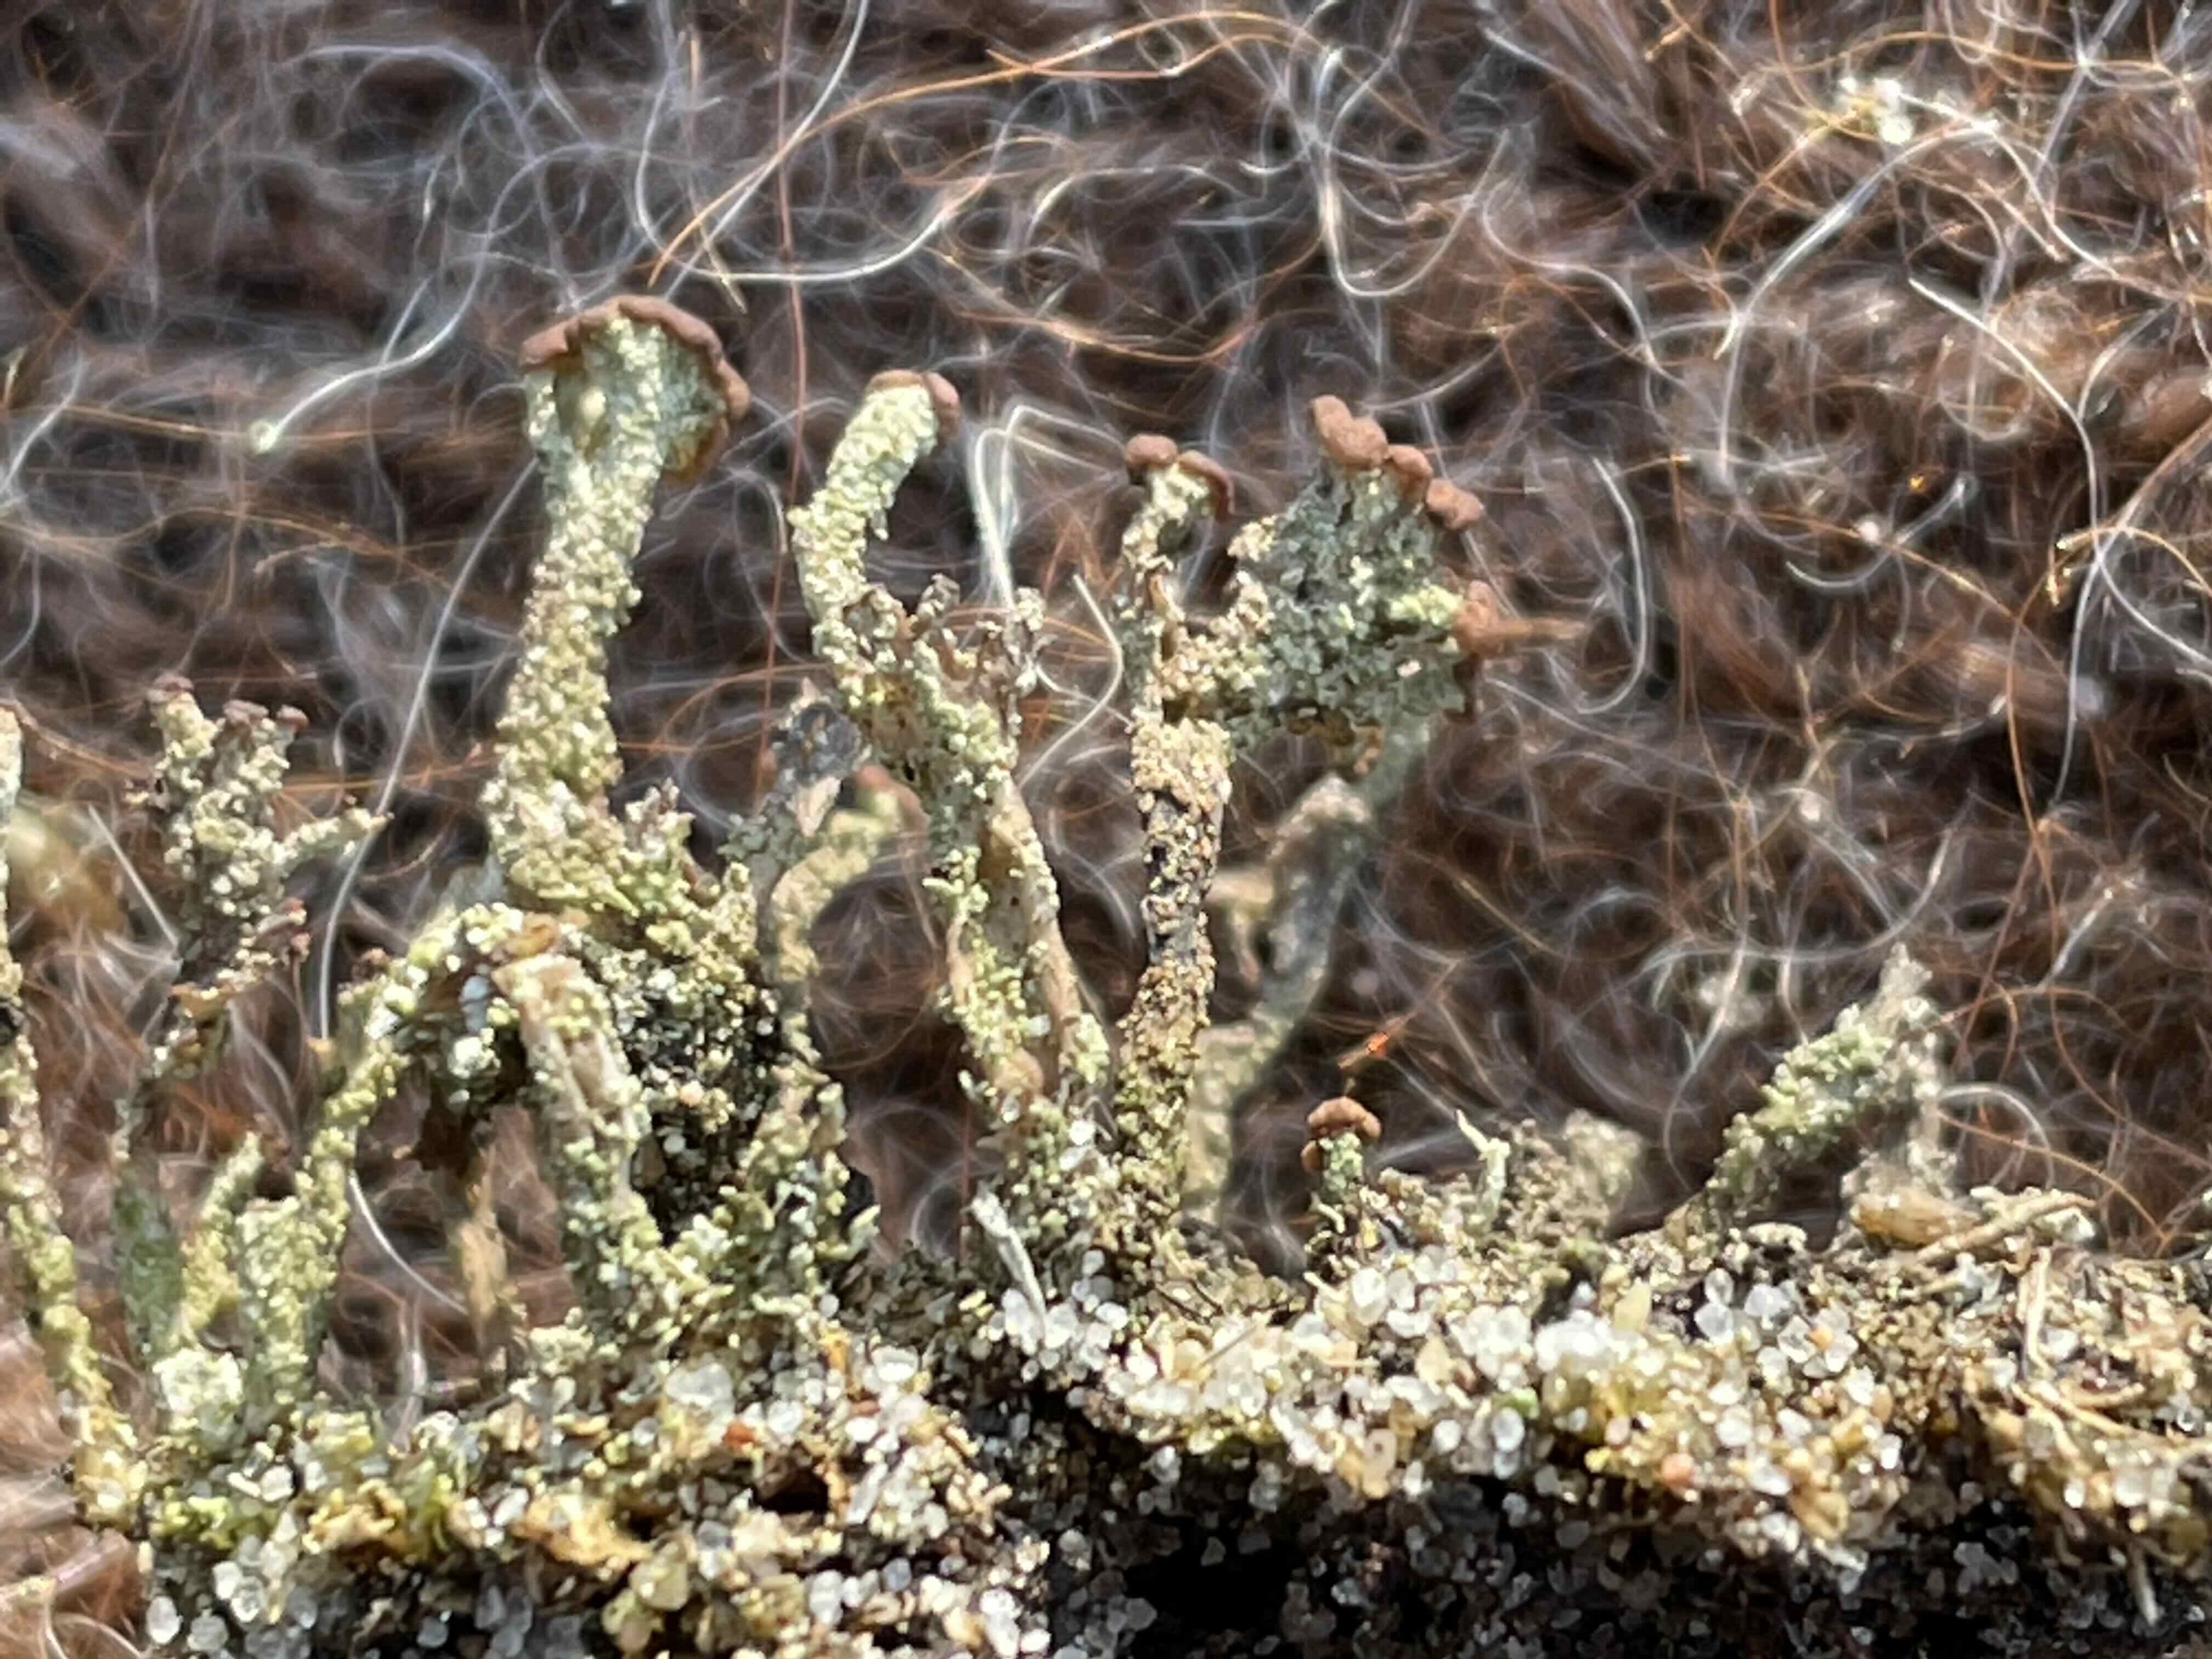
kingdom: Fungi
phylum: Ascomycota
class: Lecanoromycetes
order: Lecanorales
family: Cladoniaceae
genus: Cladonia
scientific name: Cladonia ramulosa
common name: kliddet bægerlav
